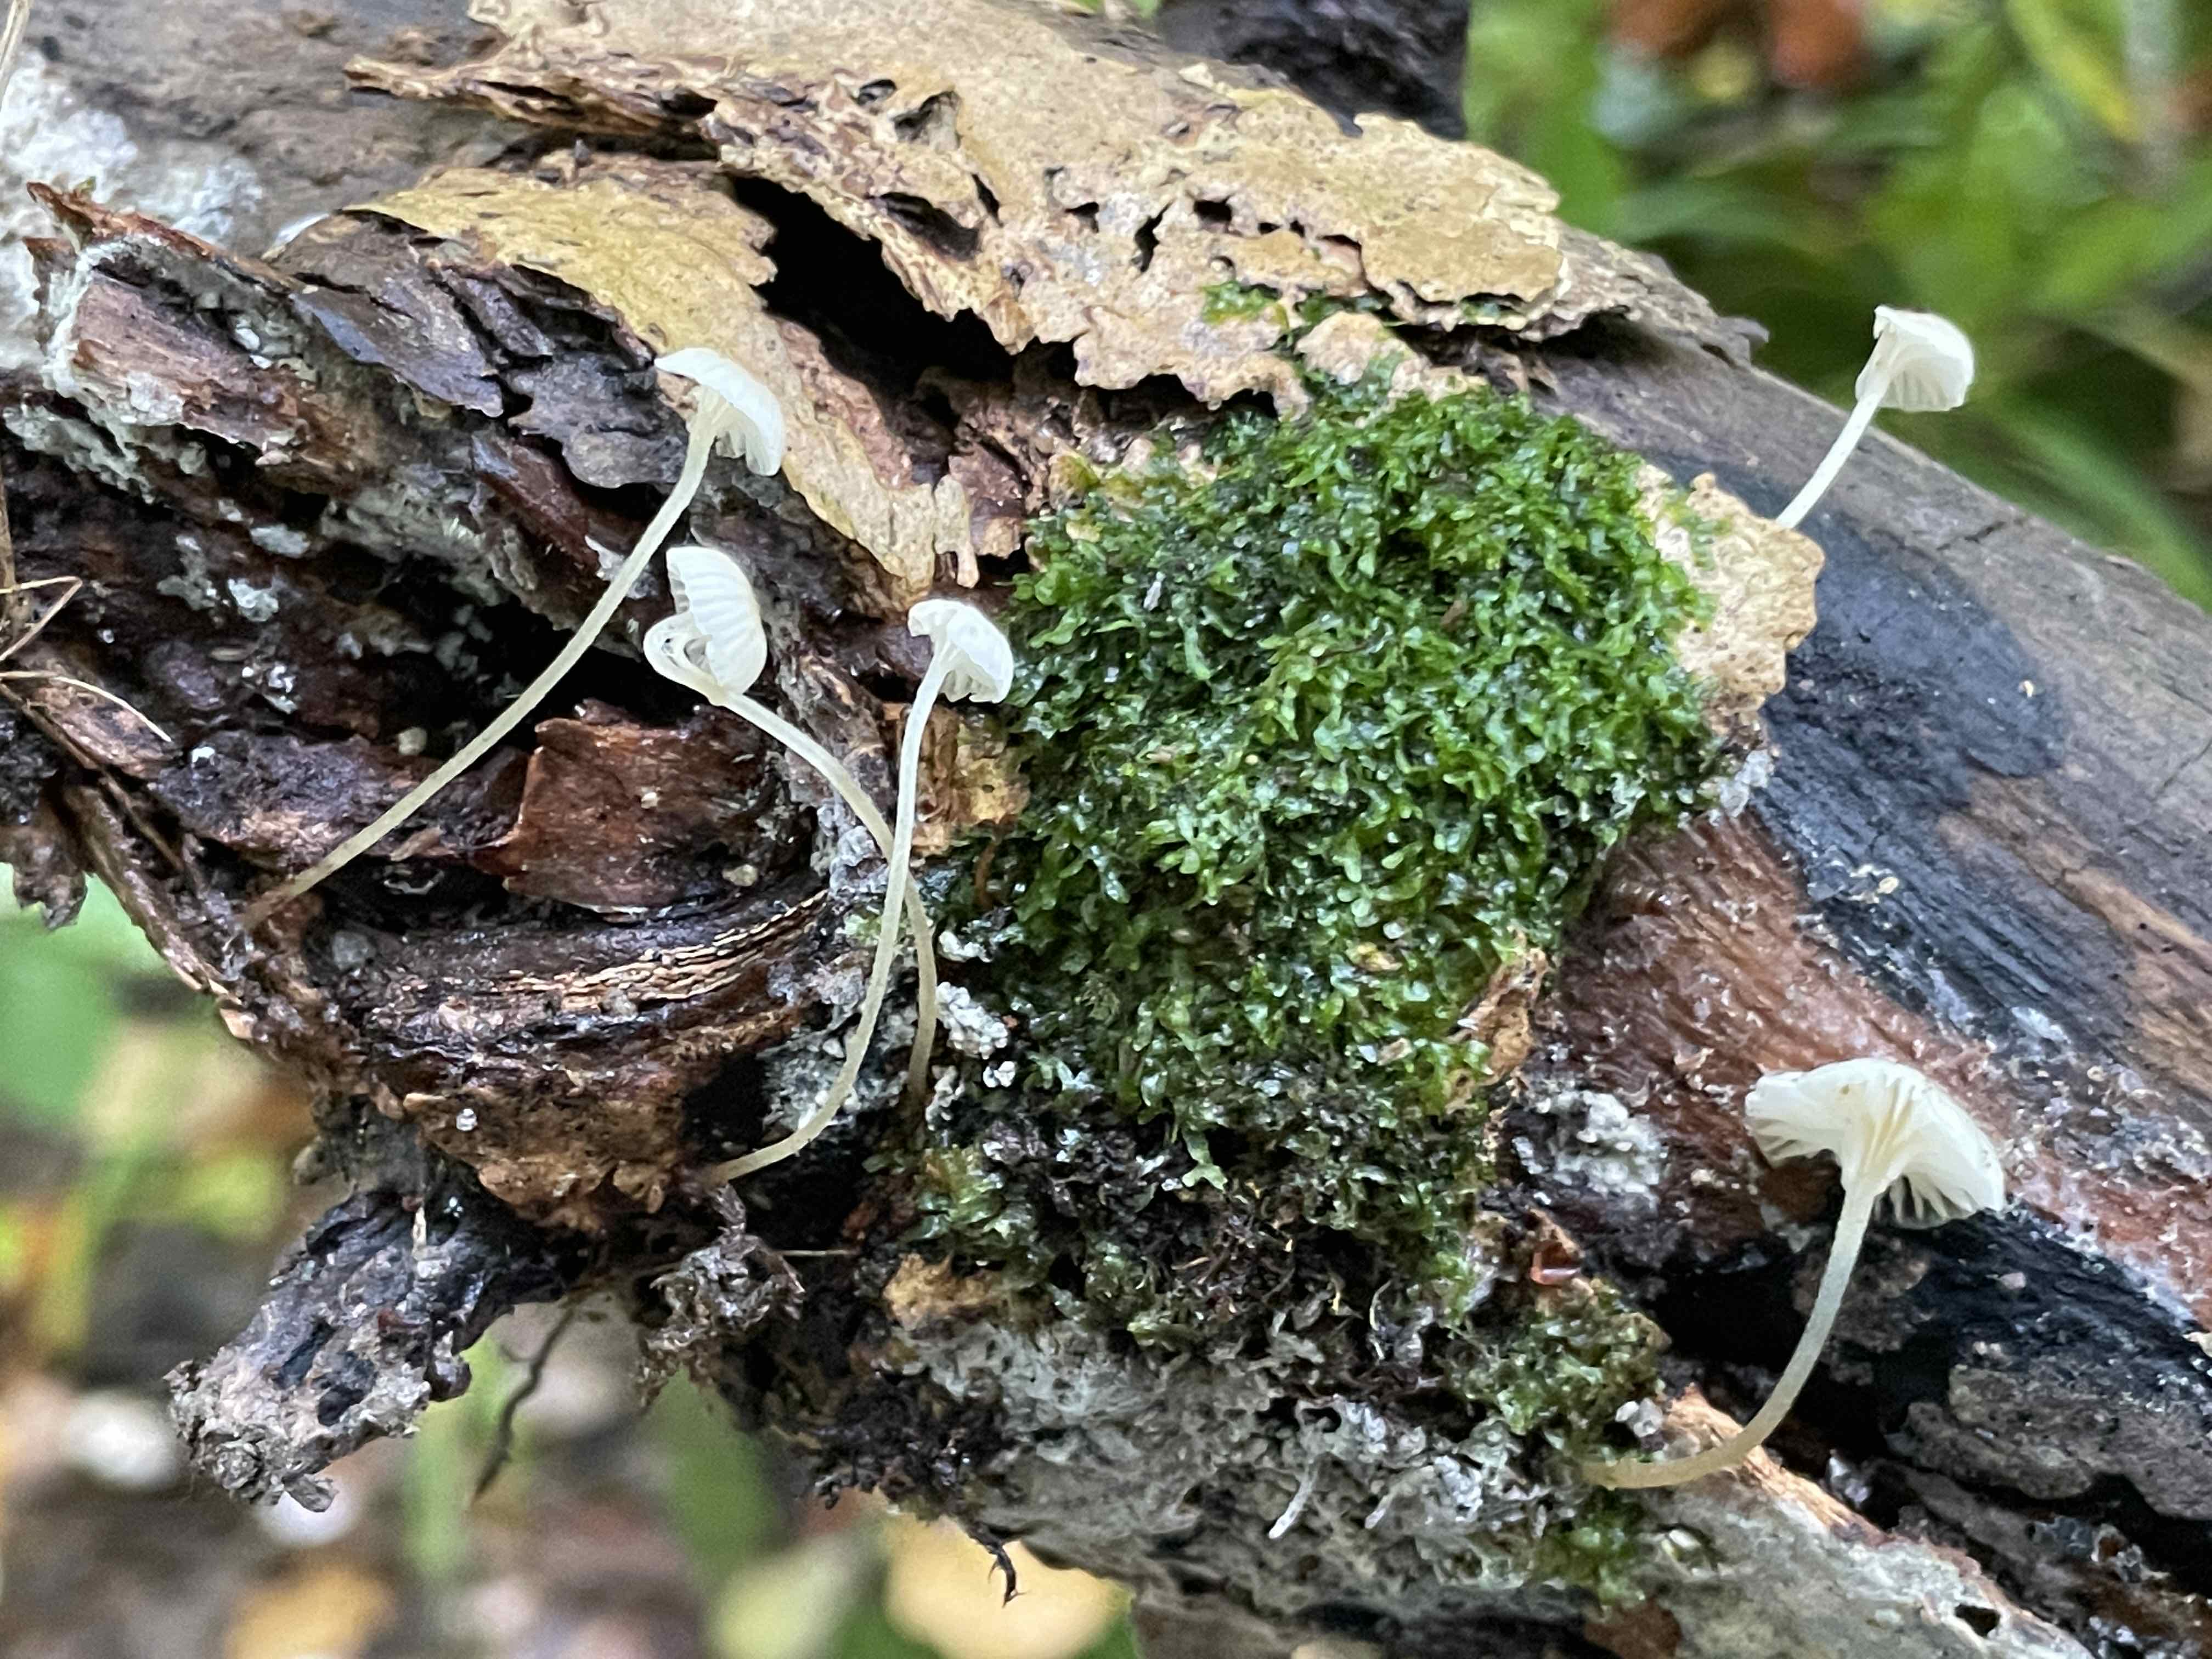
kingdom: Fungi
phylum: Basidiomycota
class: Agaricomycetes
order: Agaricales
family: Porotheleaceae
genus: Phloeomana
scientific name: Phloeomana speirea
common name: kvist-huesvamp
